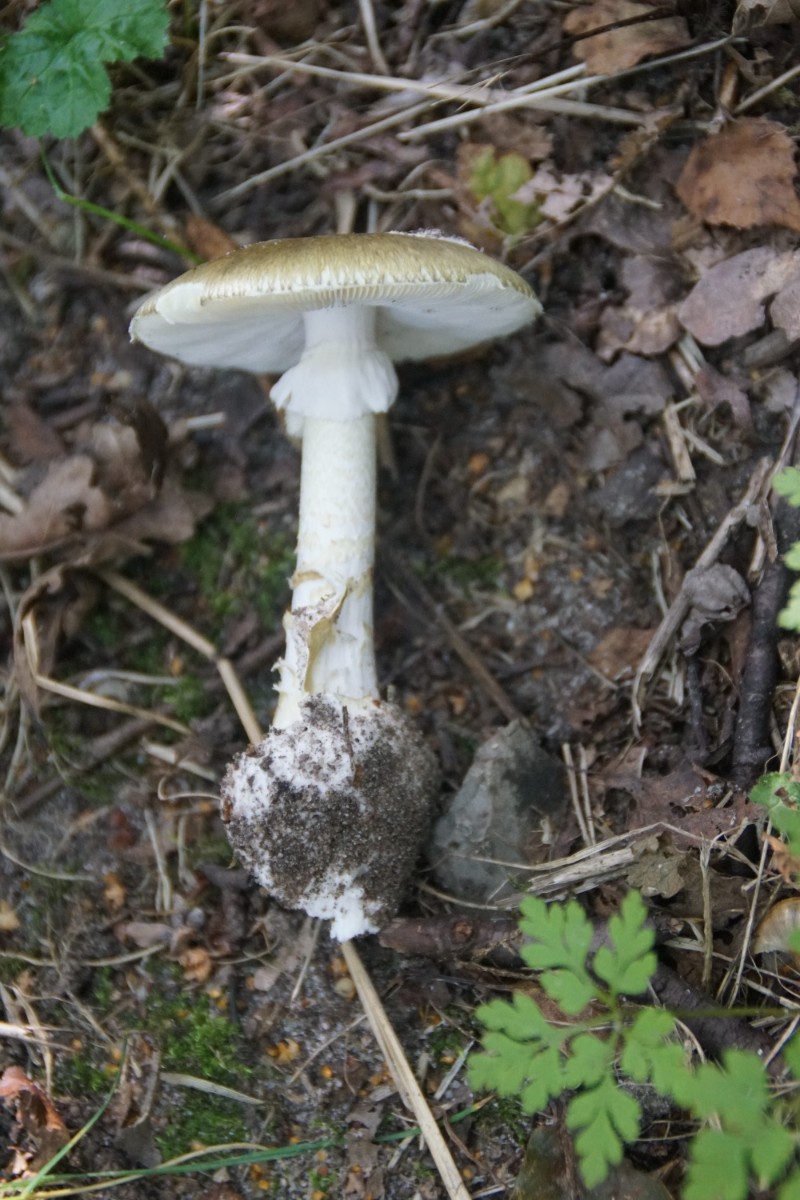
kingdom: Fungi
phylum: Basidiomycota
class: Agaricomycetes
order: Agaricales
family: Amanitaceae
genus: Amanita
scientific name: Amanita phalloides
